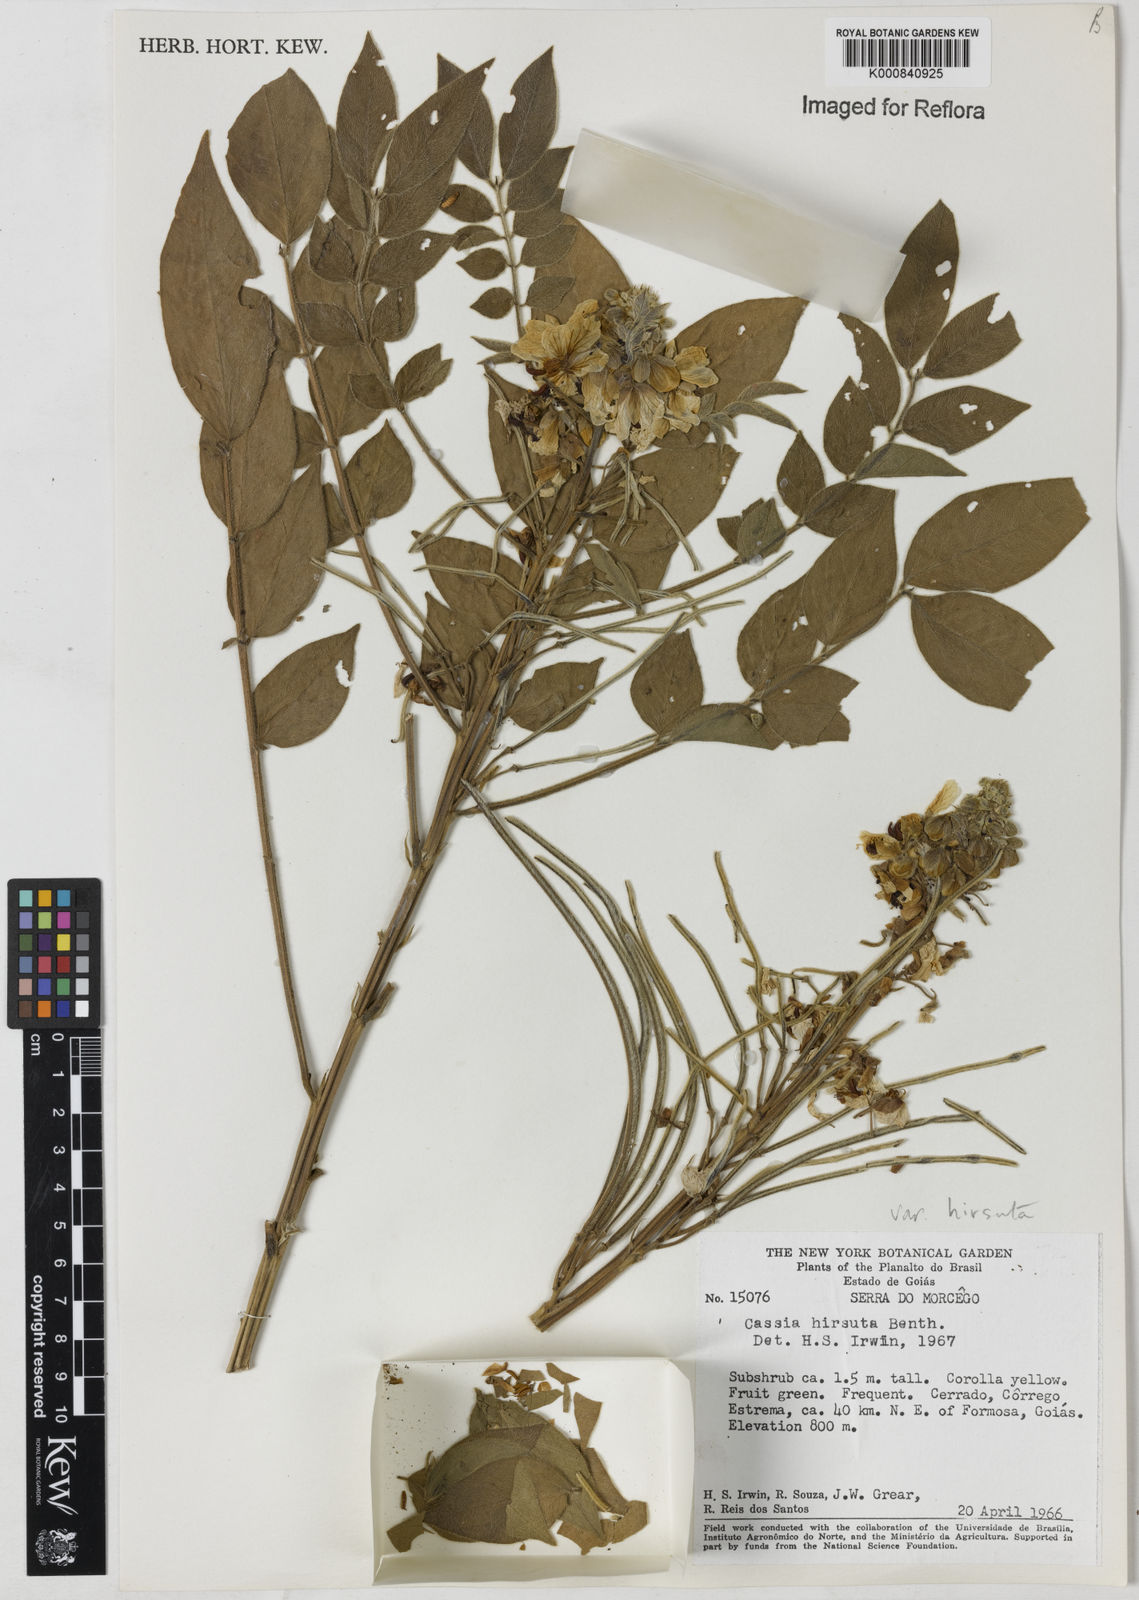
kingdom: Plantae
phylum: Tracheophyta
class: Magnoliopsida
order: Fabales
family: Fabaceae
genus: Senna
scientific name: Senna hirsuta
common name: Woolly senna
